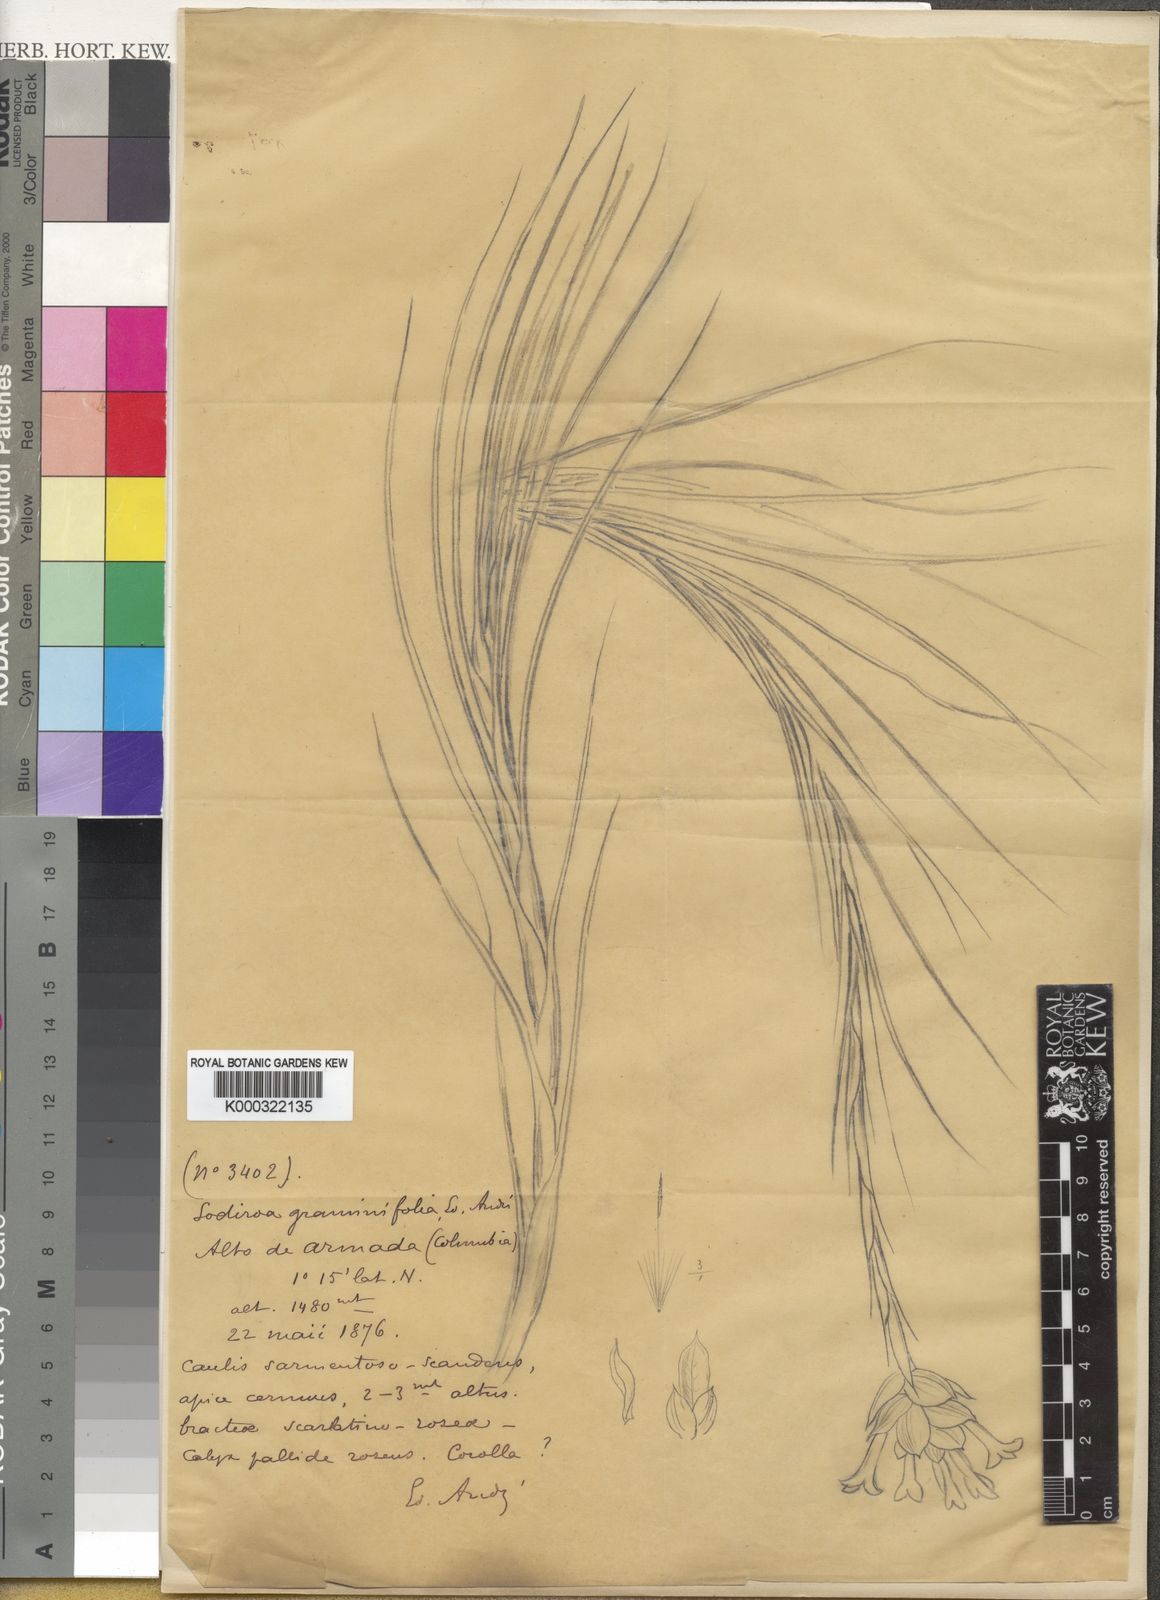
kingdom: Plantae
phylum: Tracheophyta
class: Liliopsida
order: Poales
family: Bromeliaceae
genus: Guzmania
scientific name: Guzmania graminifolia
